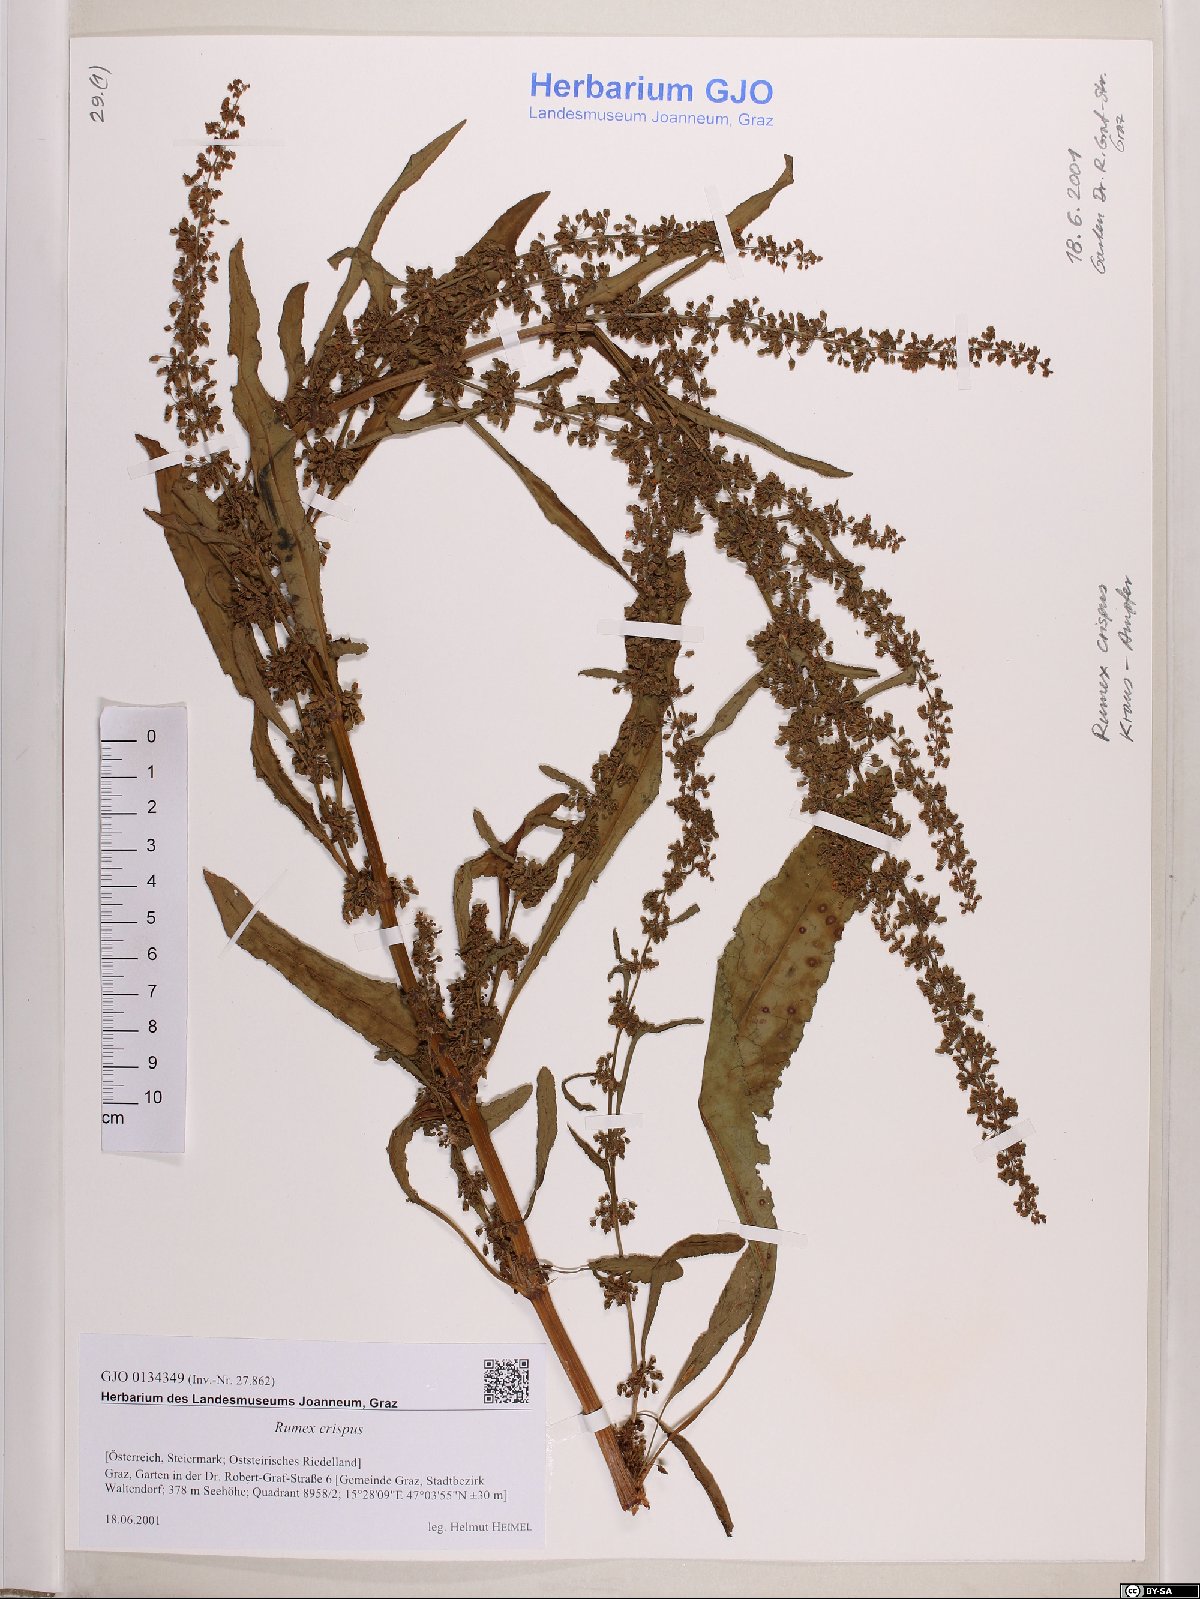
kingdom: Plantae
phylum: Tracheophyta
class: Magnoliopsida
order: Caryophyllales
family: Polygonaceae
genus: Rumex
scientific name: Rumex crispus
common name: Curled dock
